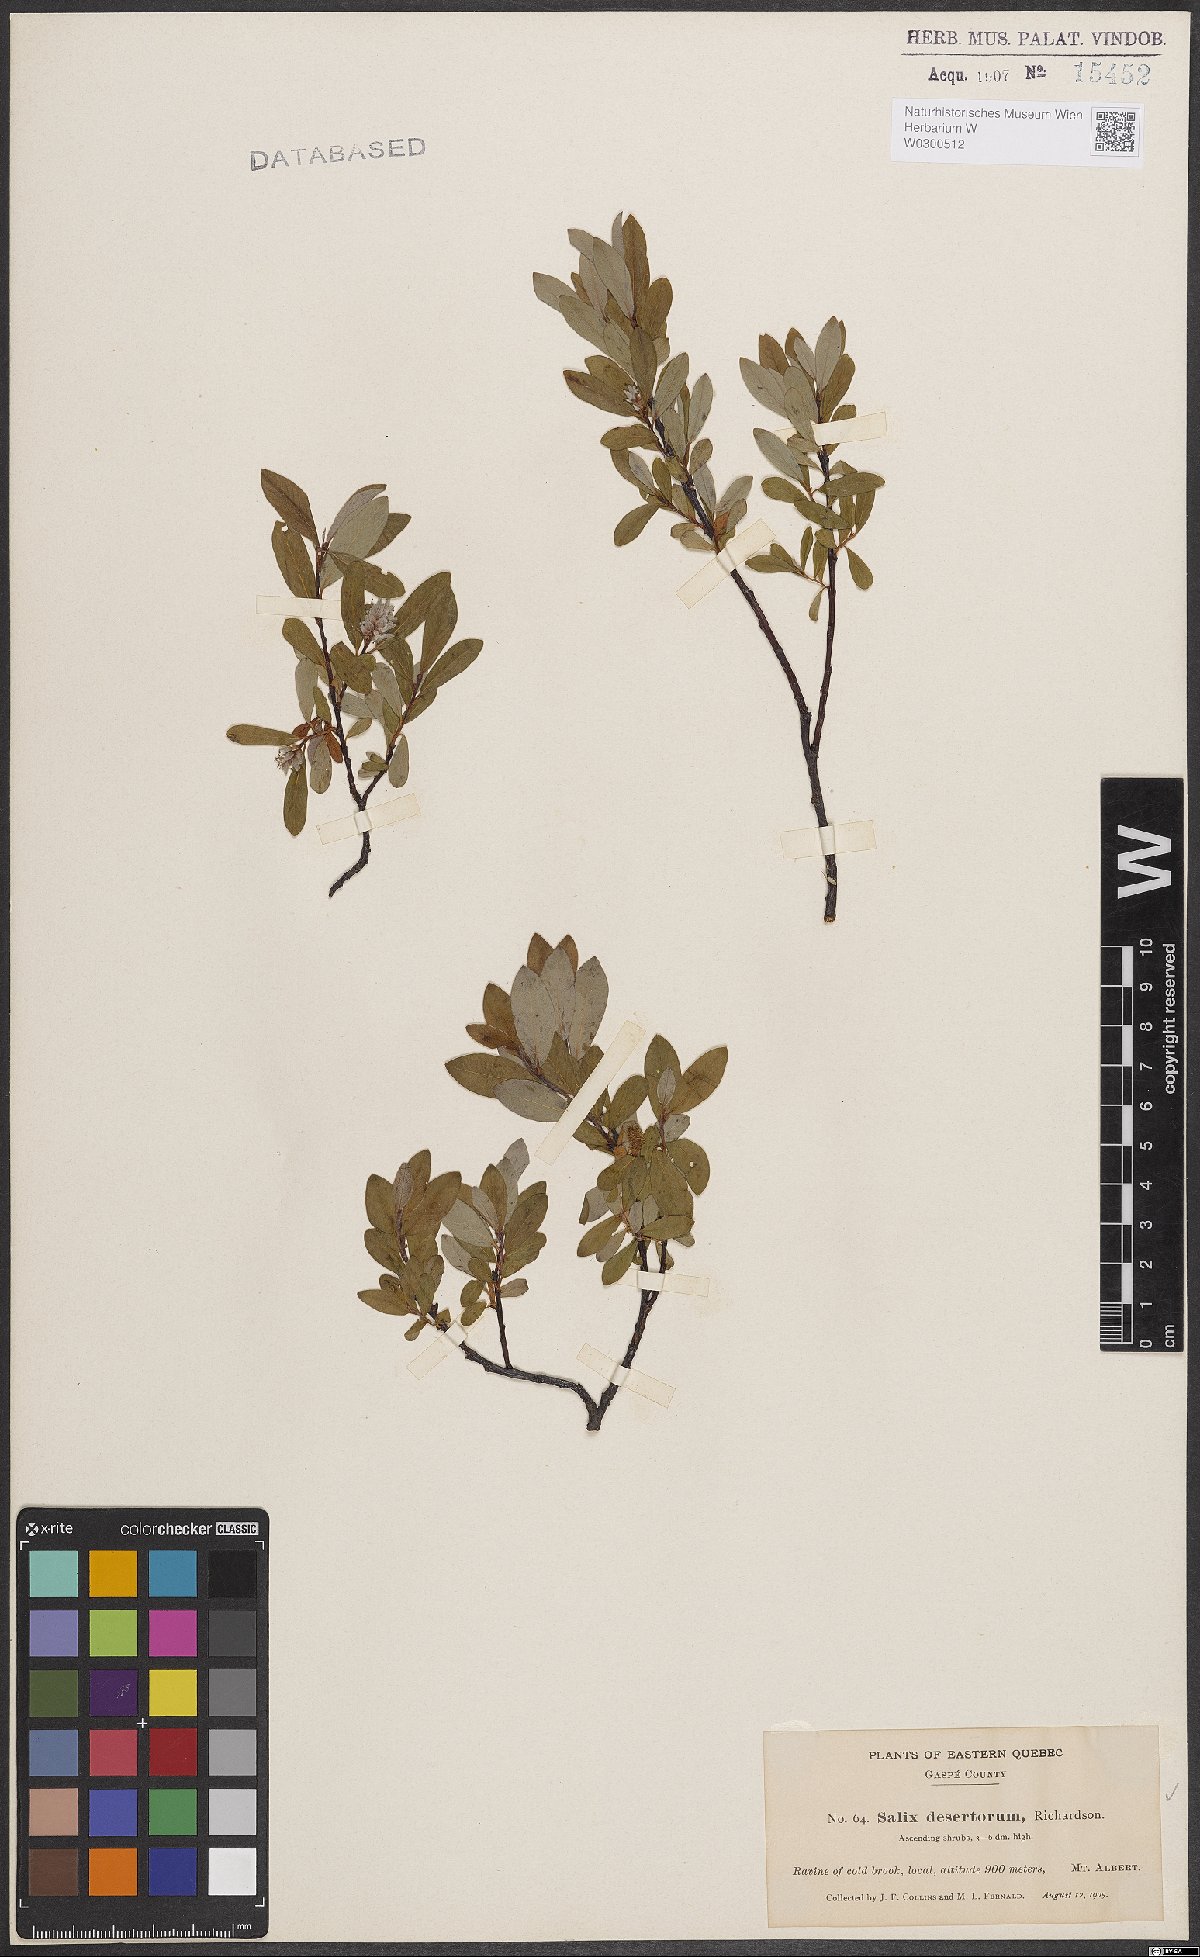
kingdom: Plantae
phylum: Tracheophyta
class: Magnoliopsida
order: Malpighiales
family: Salicaceae
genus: Salix
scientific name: Salix glauca
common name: Glaucous willow
